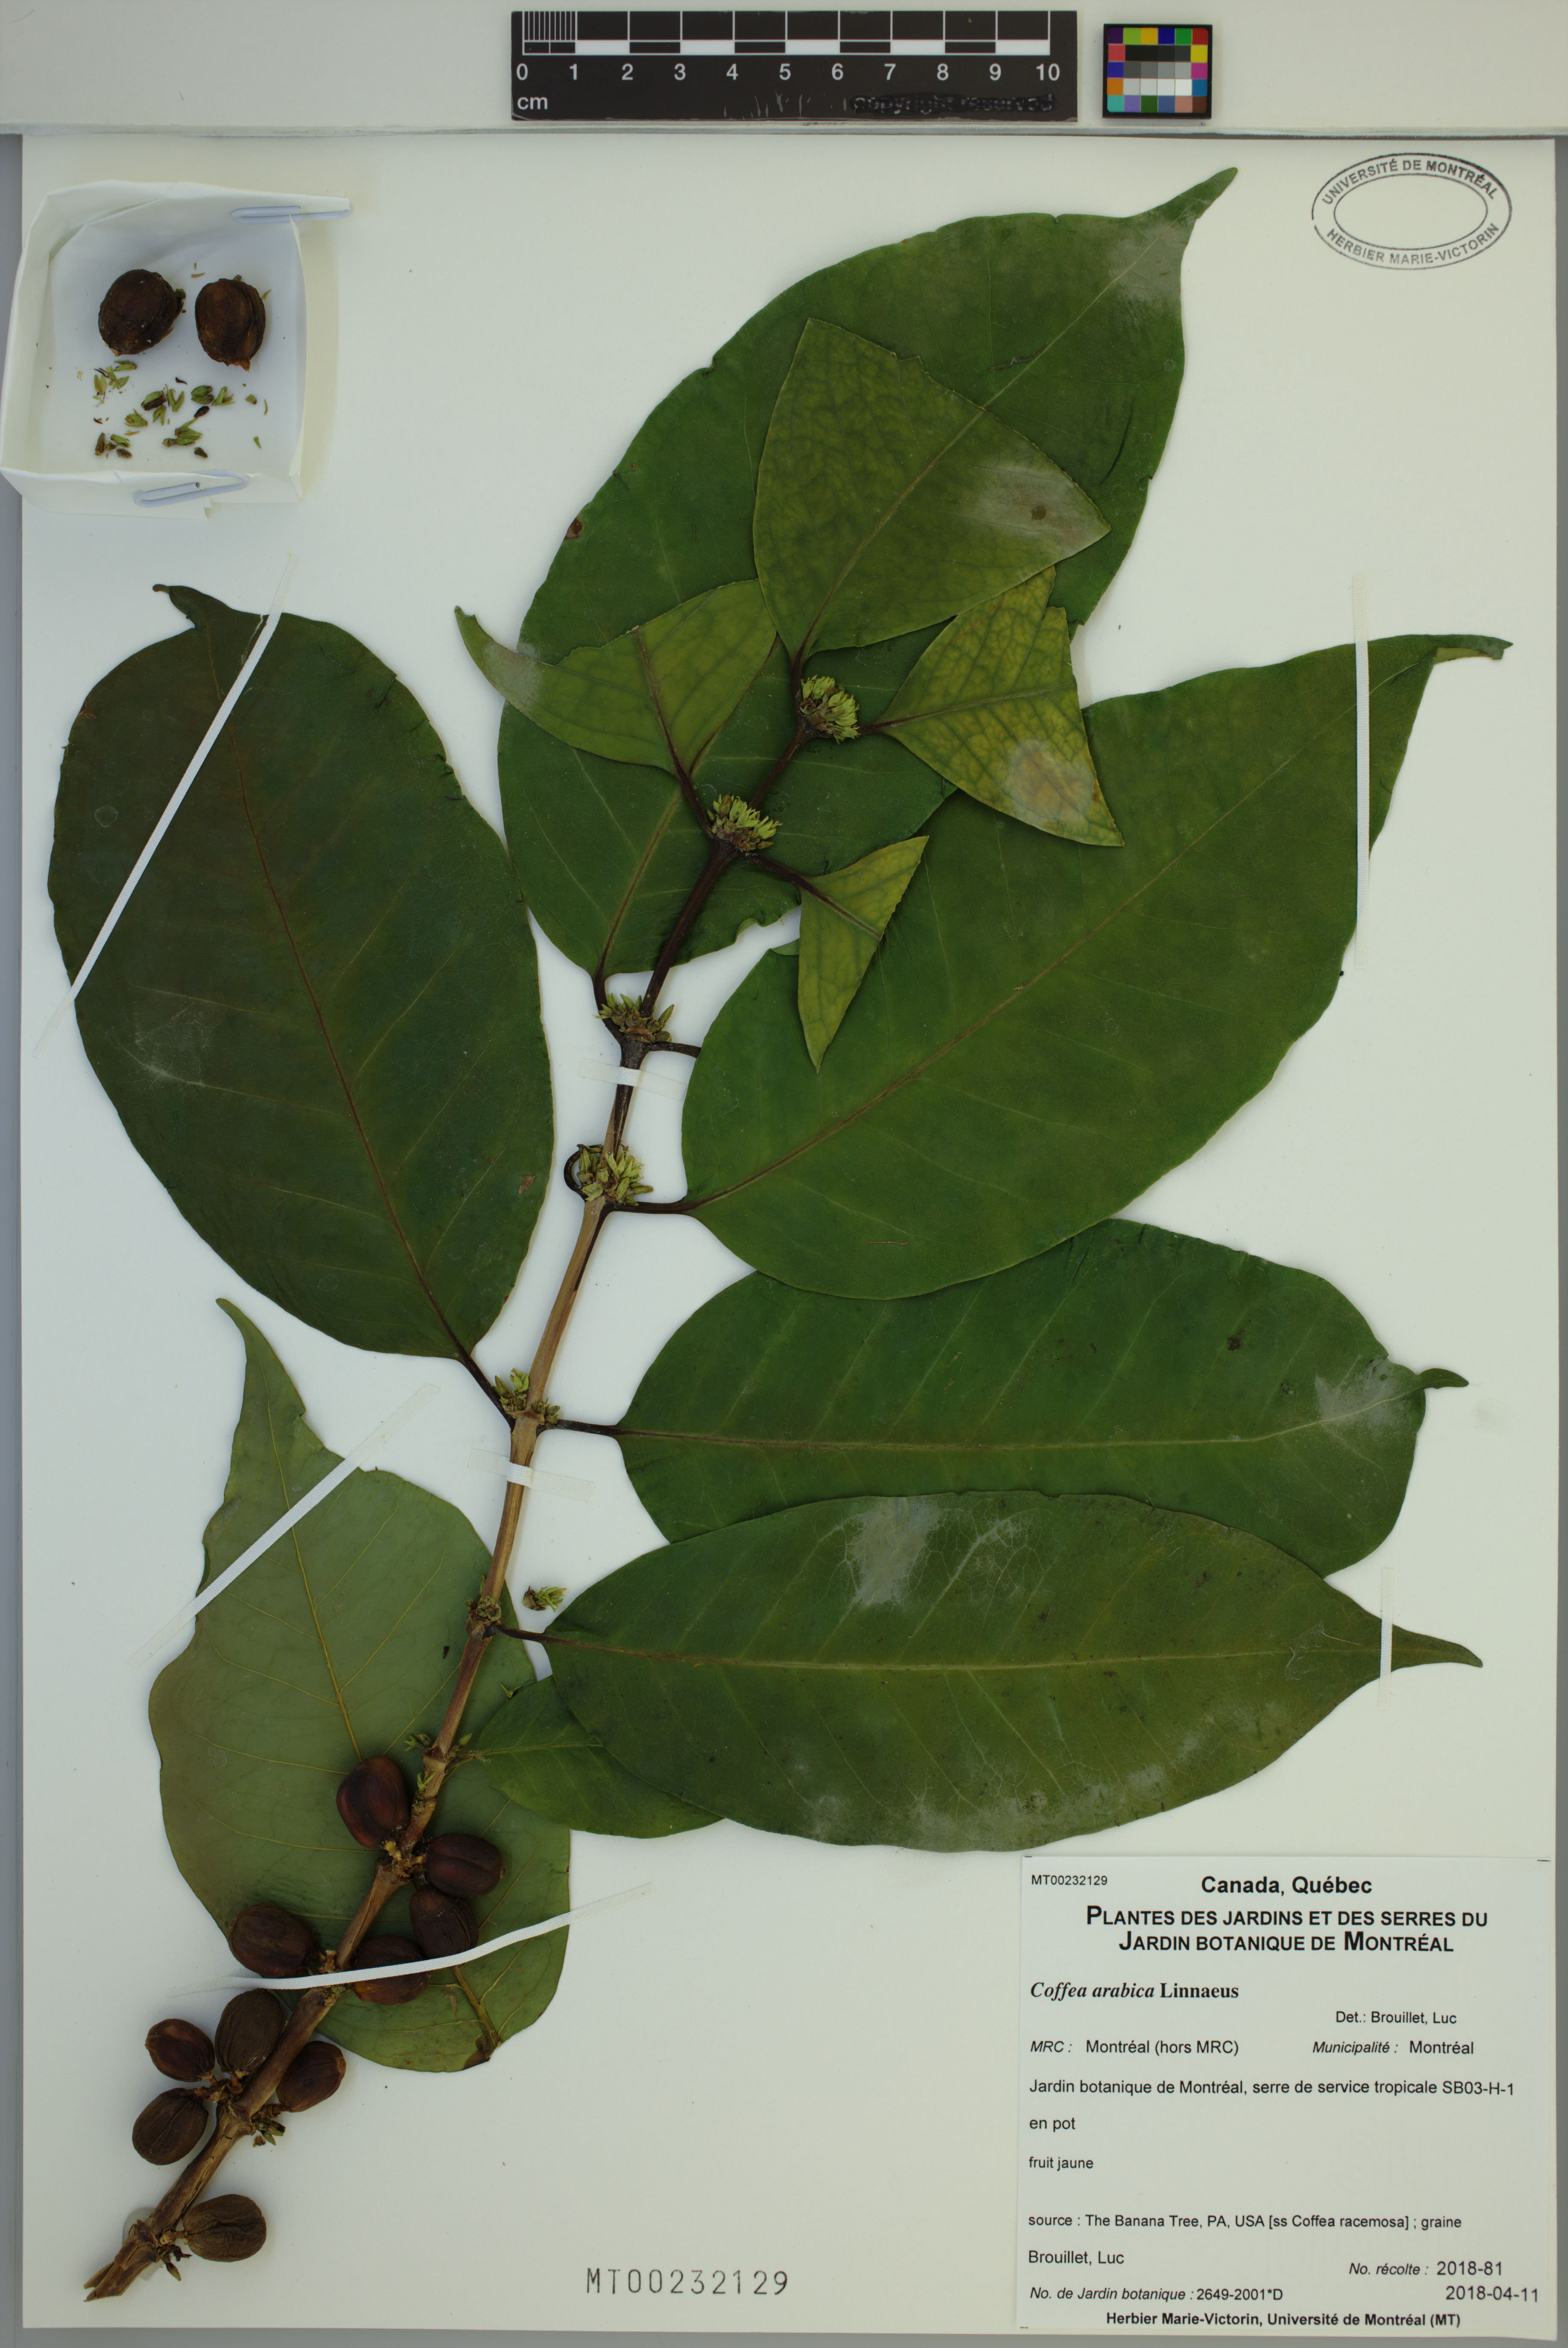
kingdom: Plantae
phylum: Tracheophyta
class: Magnoliopsida
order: Gentianales
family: Rubiaceae
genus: Coffea
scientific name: Coffea arabica
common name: Coffee
